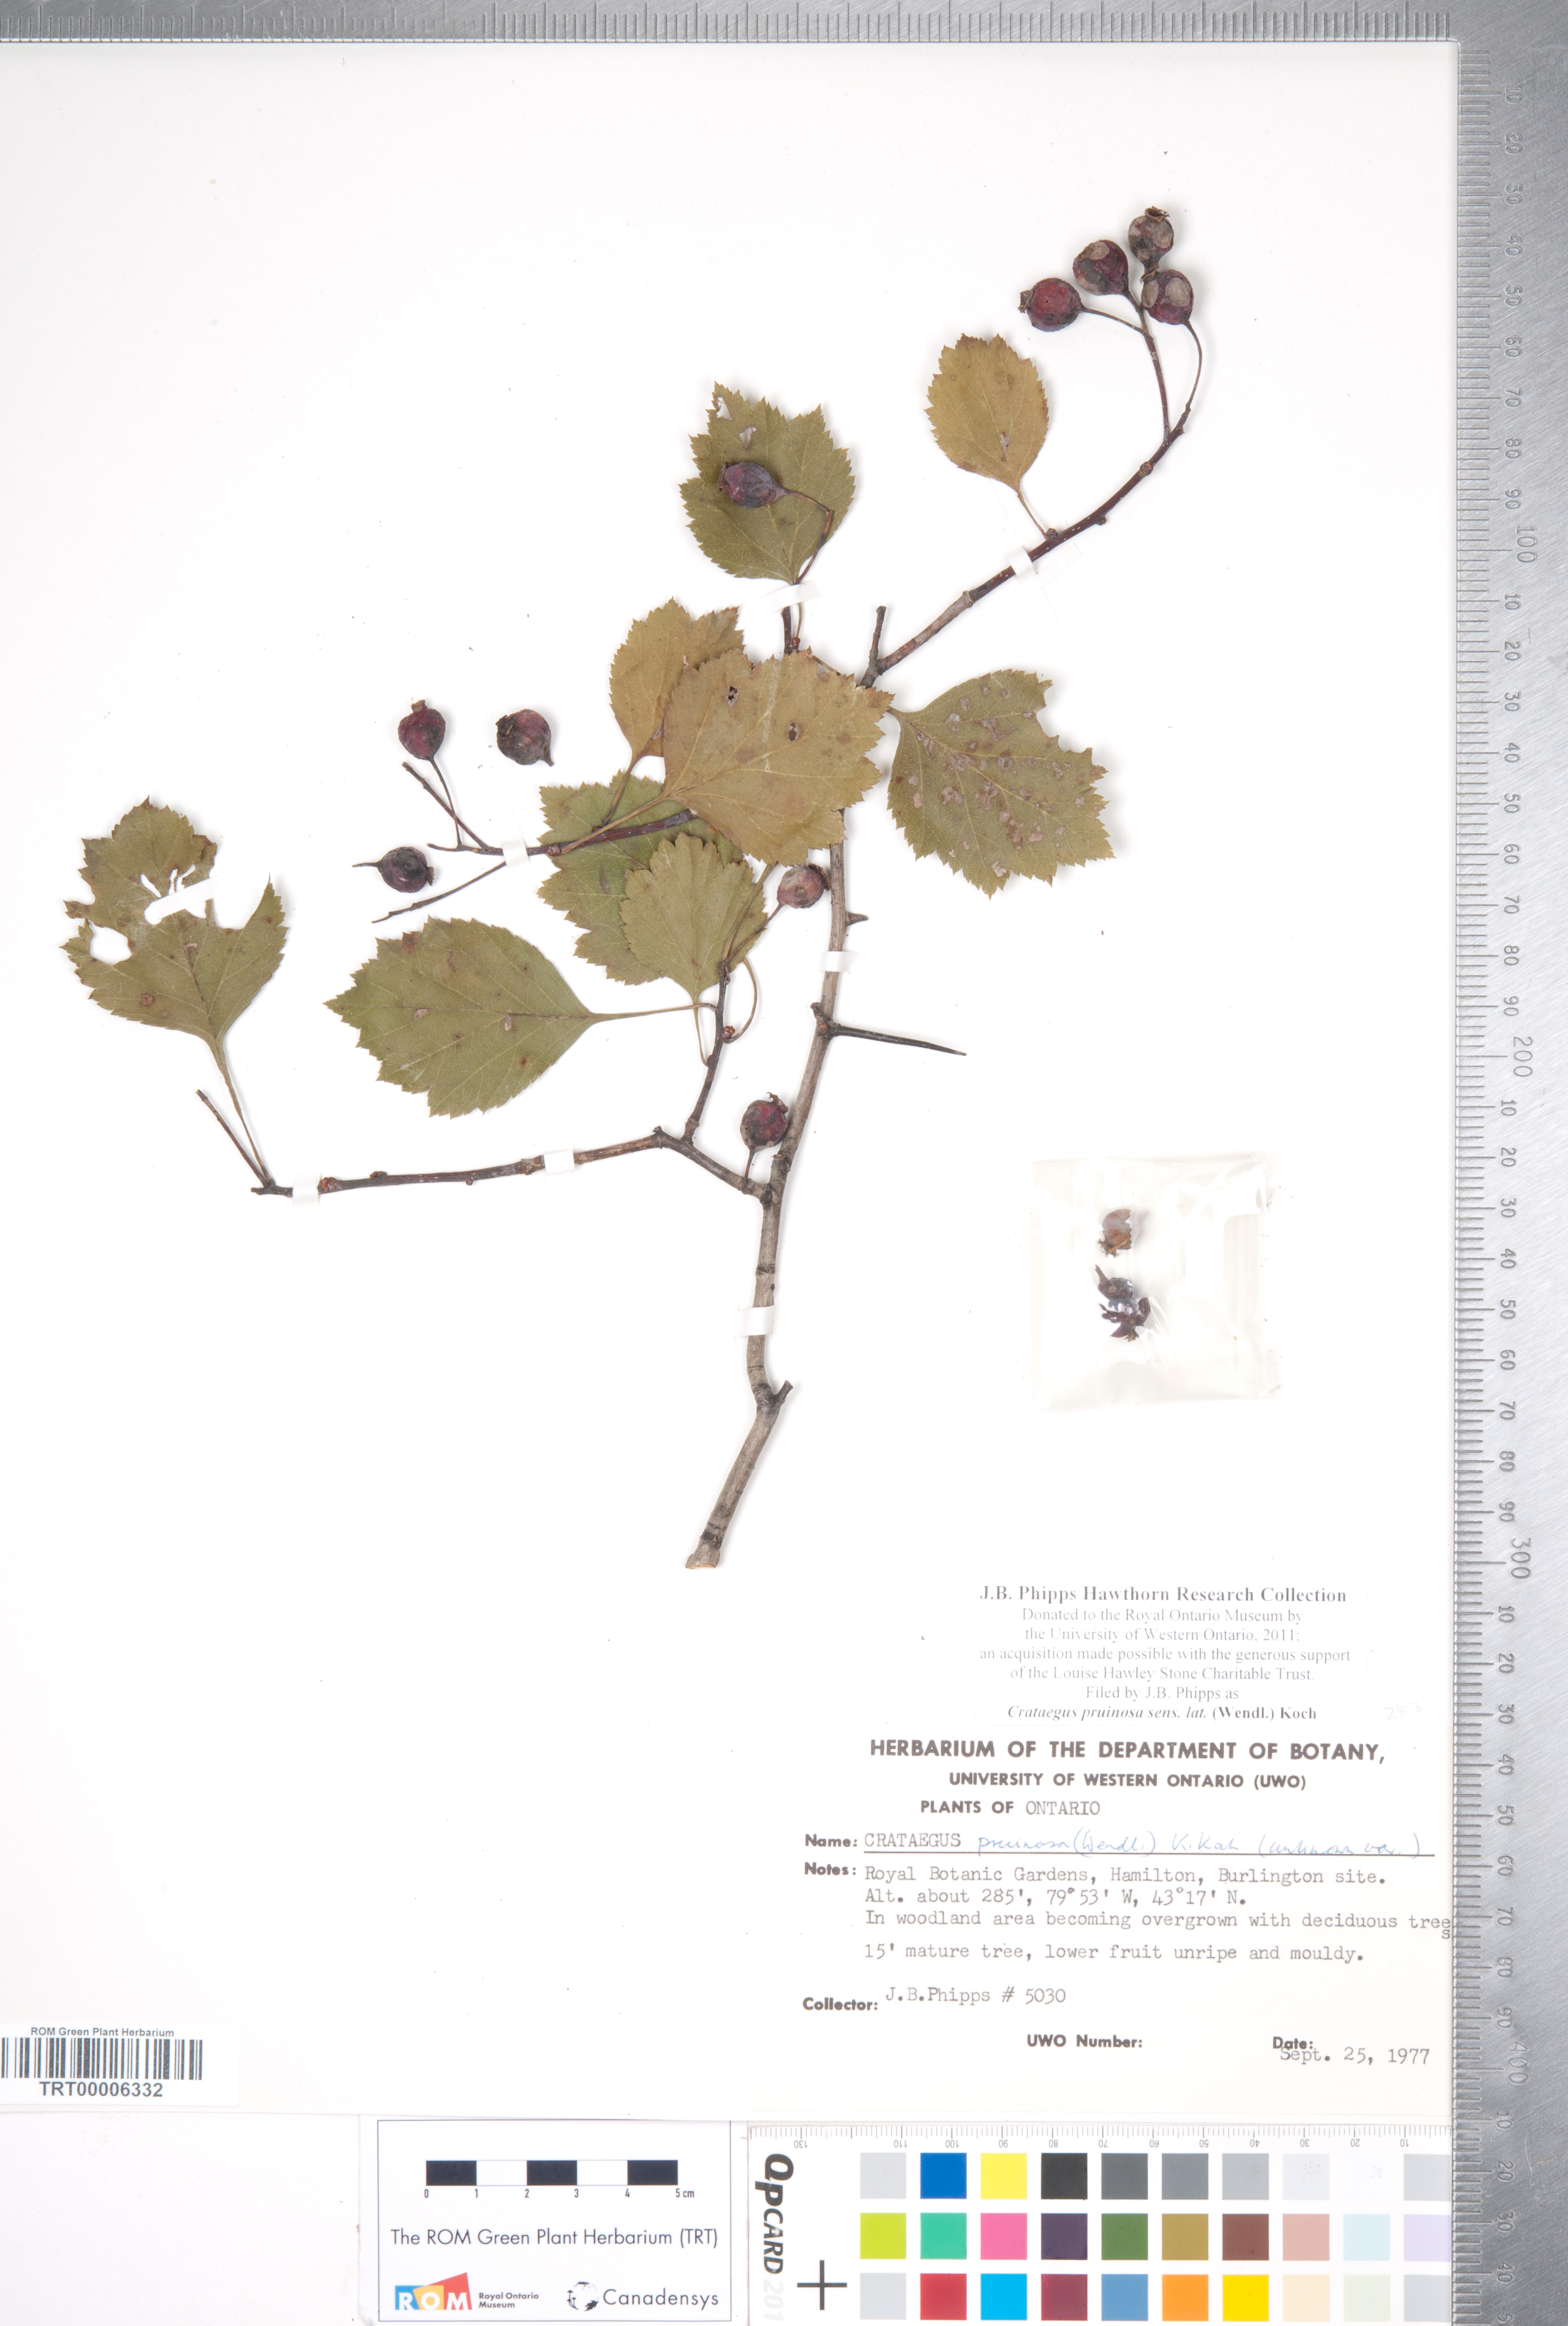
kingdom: Plantae
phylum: Tracheophyta
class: Magnoliopsida
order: Rosales
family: Rosaceae
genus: Crataegus
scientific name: Crataegus pruinosa
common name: Waxy-fruit hawthorn
